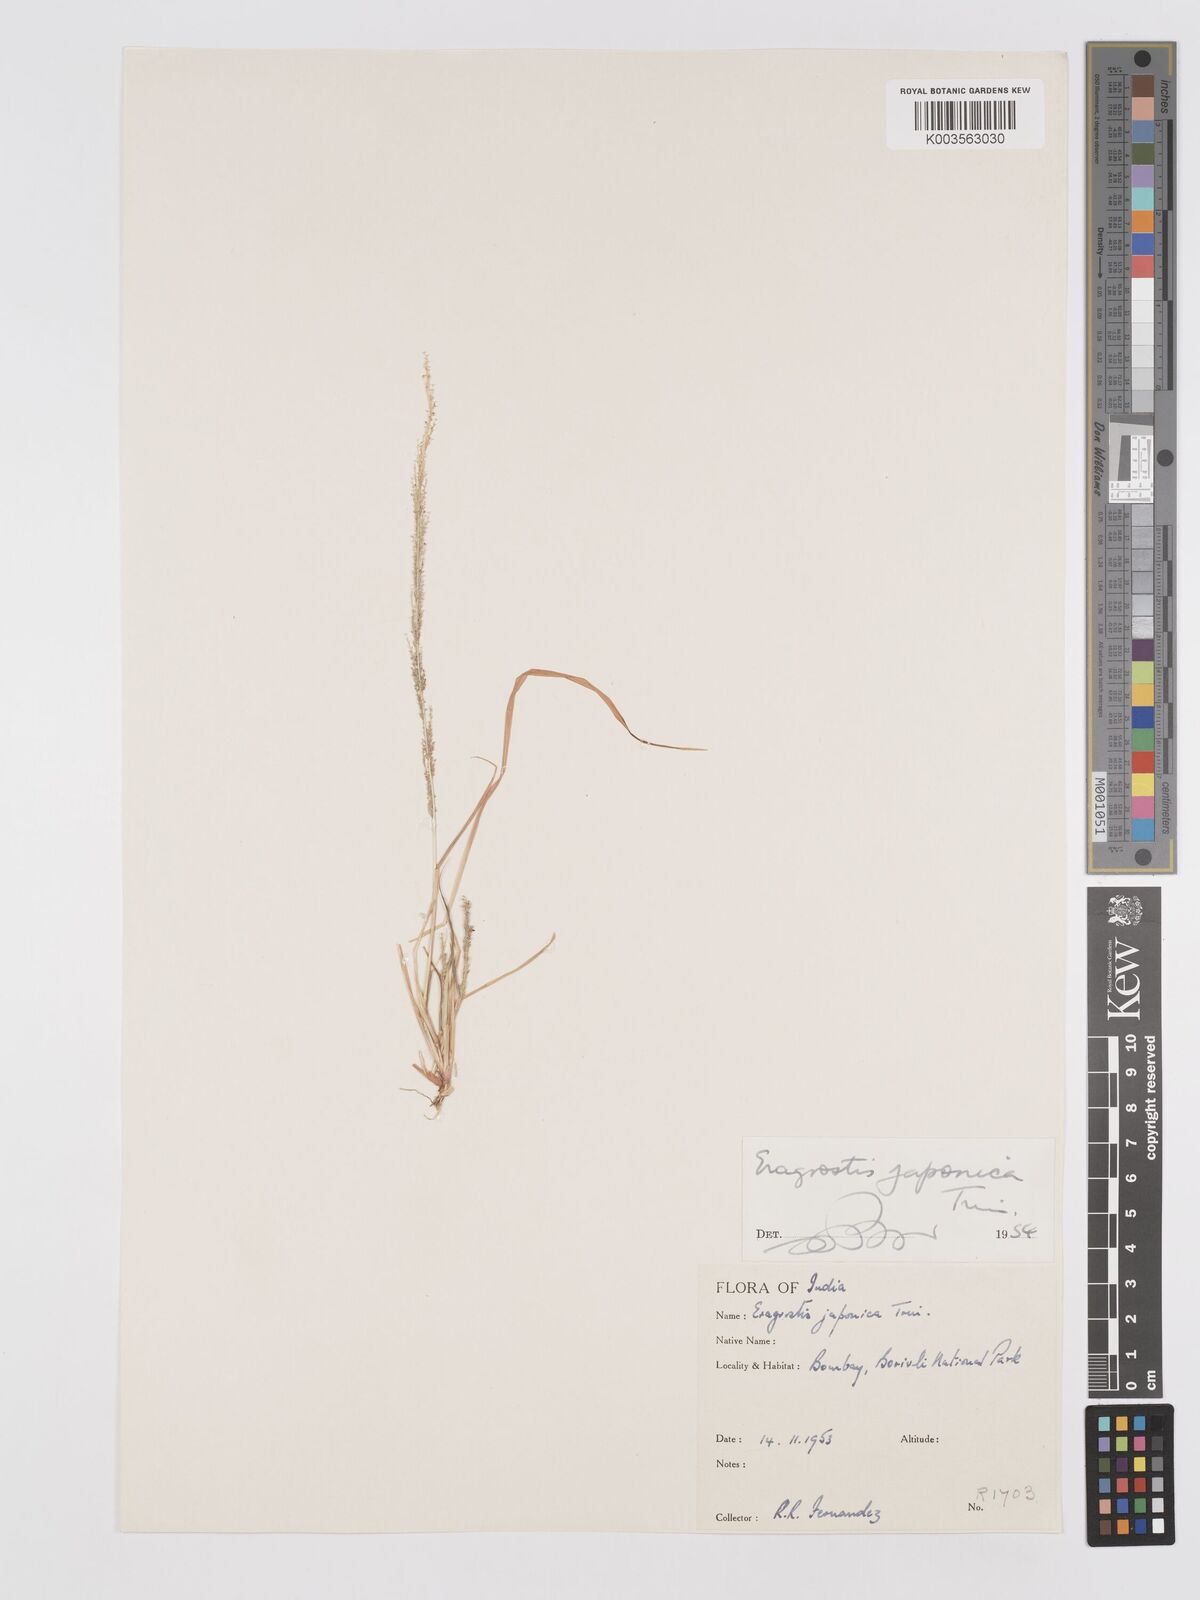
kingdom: Plantae
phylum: Tracheophyta
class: Liliopsida
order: Poales
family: Poaceae
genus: Eragrostis
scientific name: Eragrostis japonica
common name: Pond lovegrass
